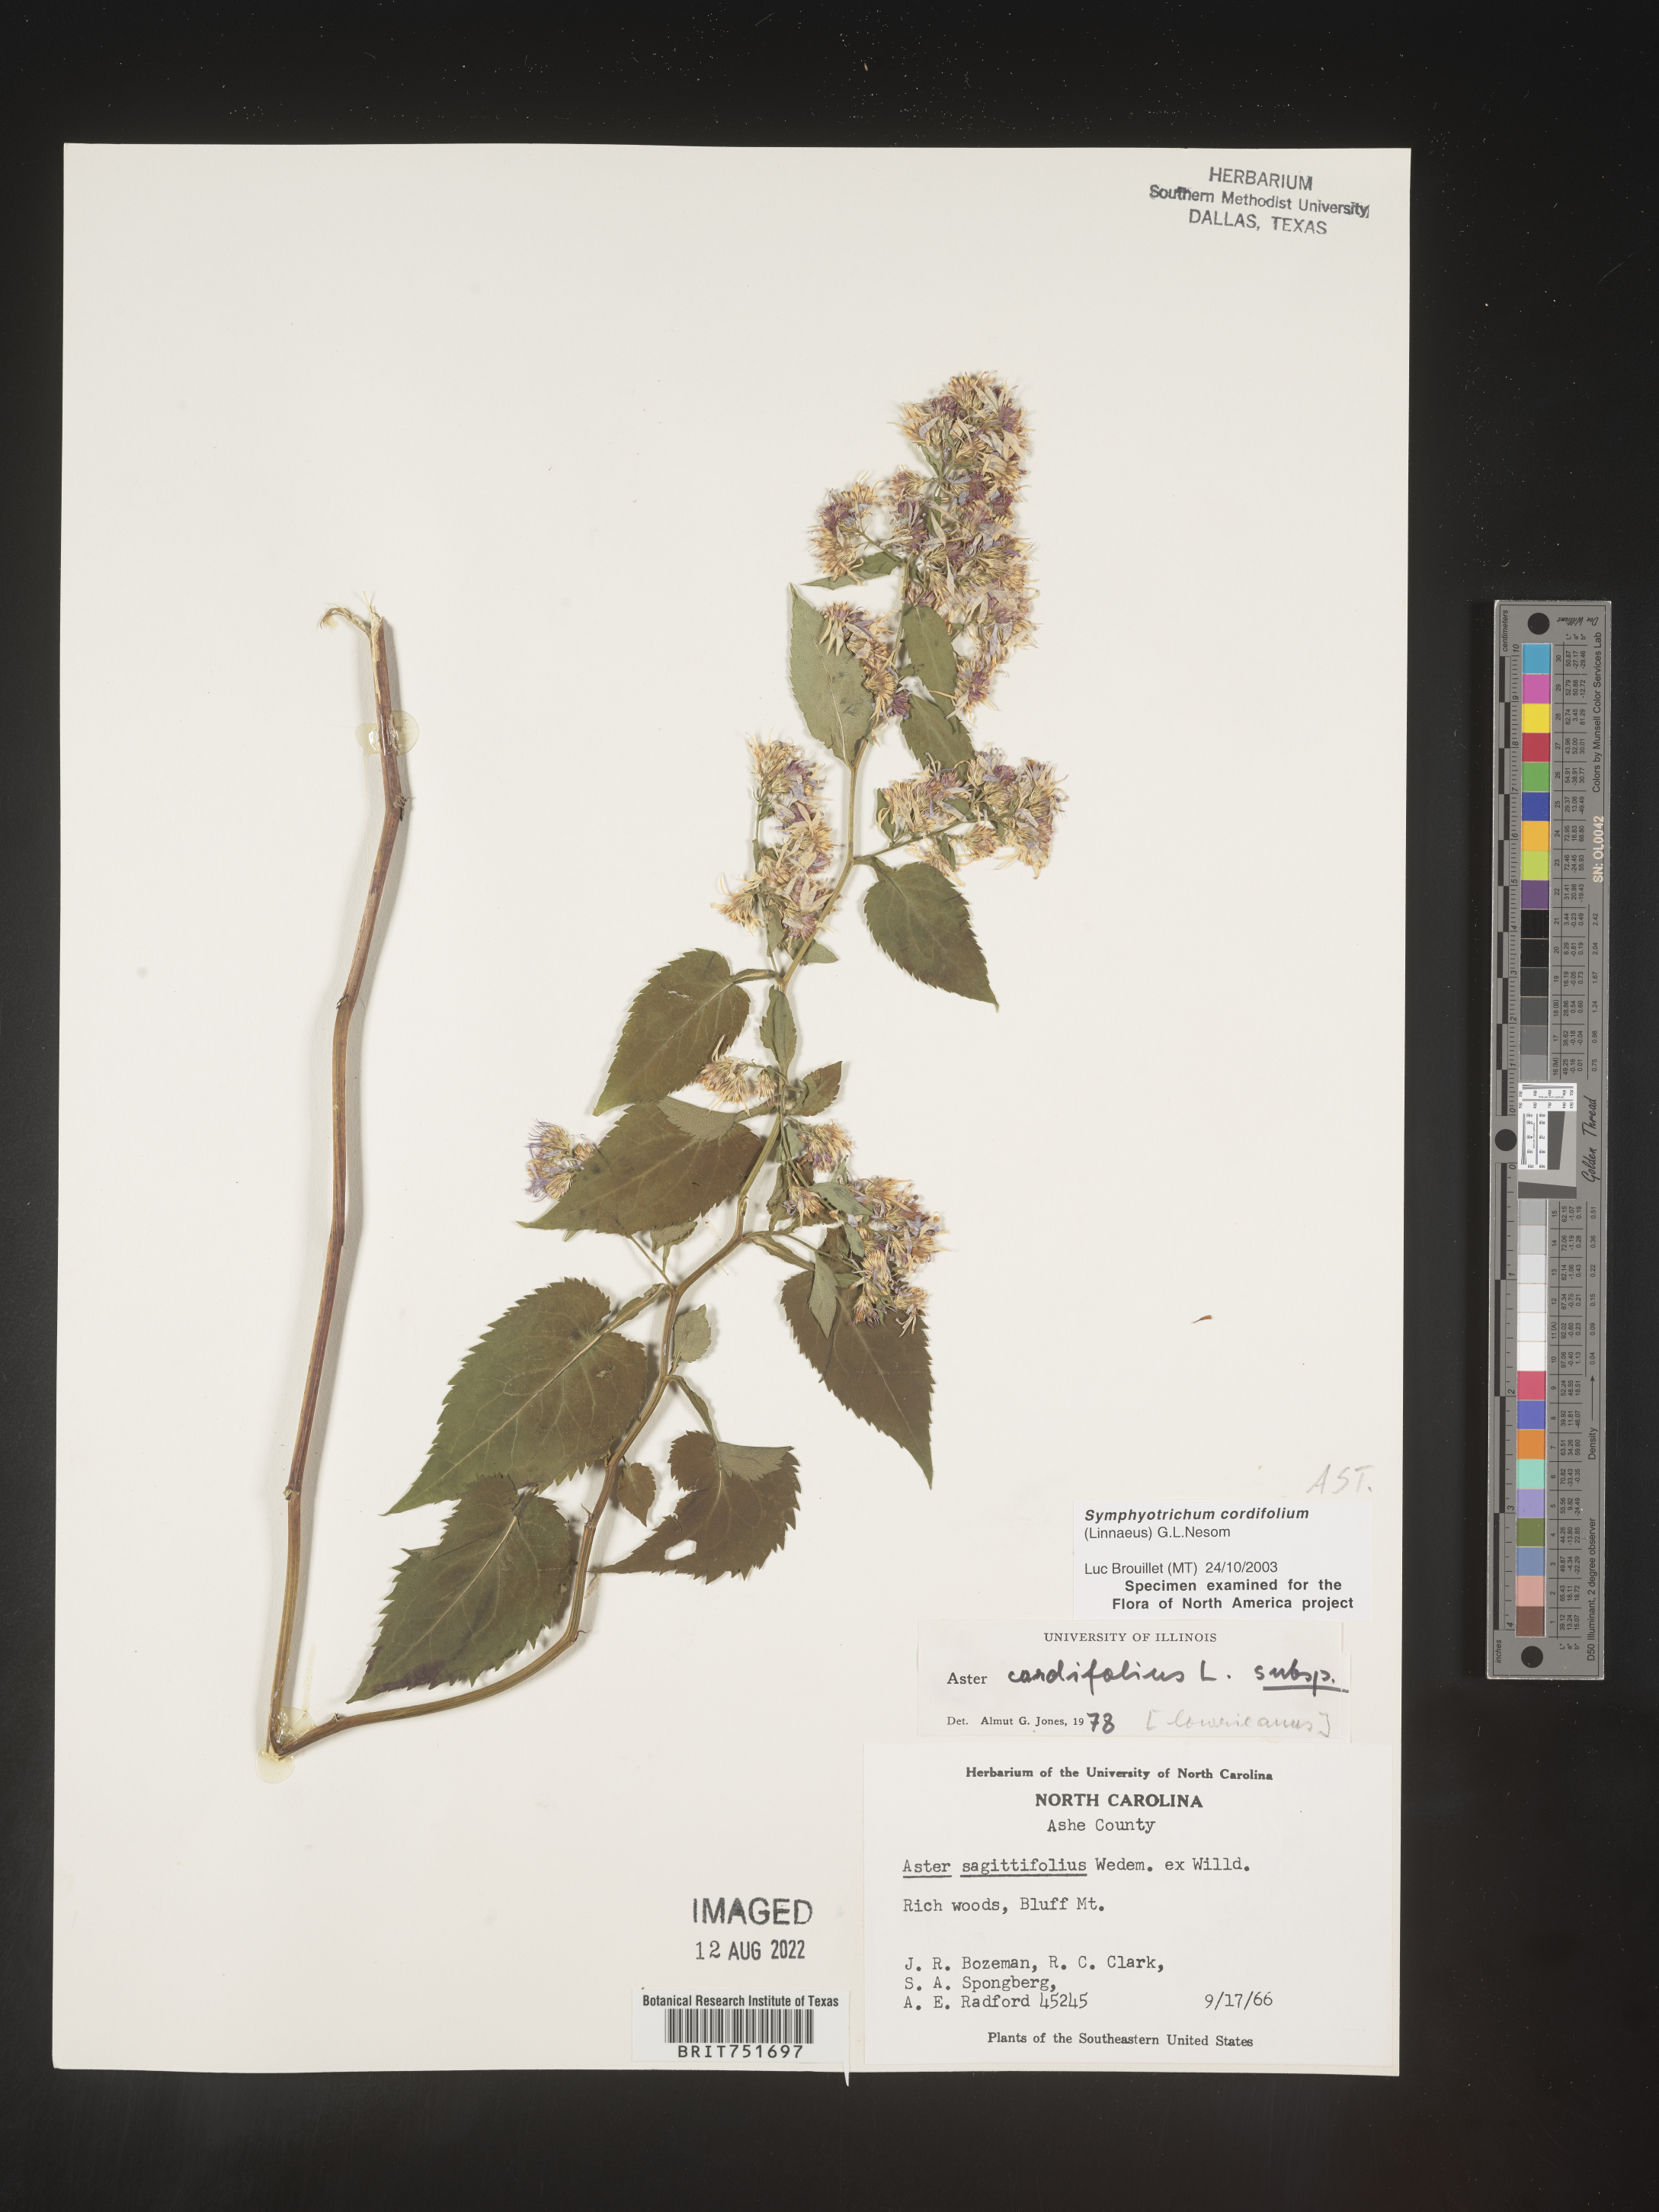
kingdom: Plantae
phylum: Tracheophyta
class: Magnoliopsida
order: Asterales
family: Asteraceae
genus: Symphyotrichum
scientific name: Symphyotrichum cordifolium
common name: Beeweed
